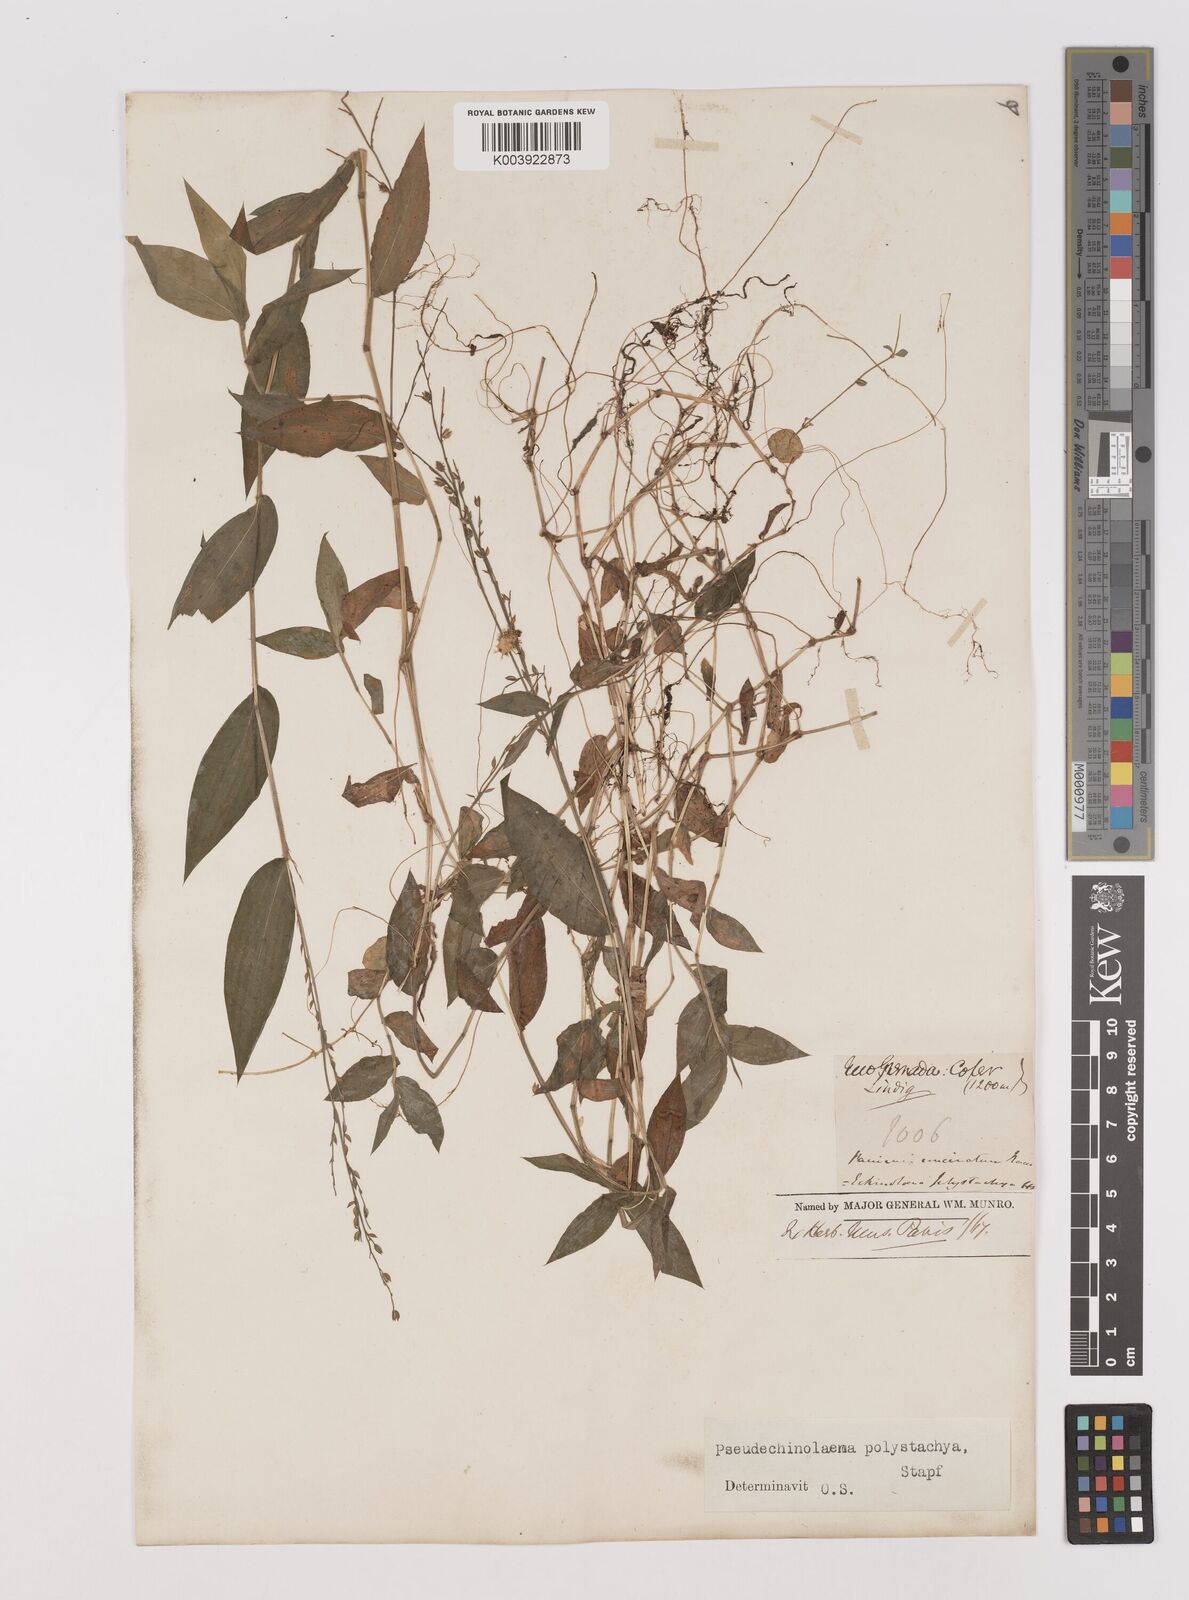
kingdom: Plantae
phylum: Tracheophyta
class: Liliopsida
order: Poales
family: Poaceae
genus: Pseudechinolaena
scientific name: Pseudechinolaena polystachya
